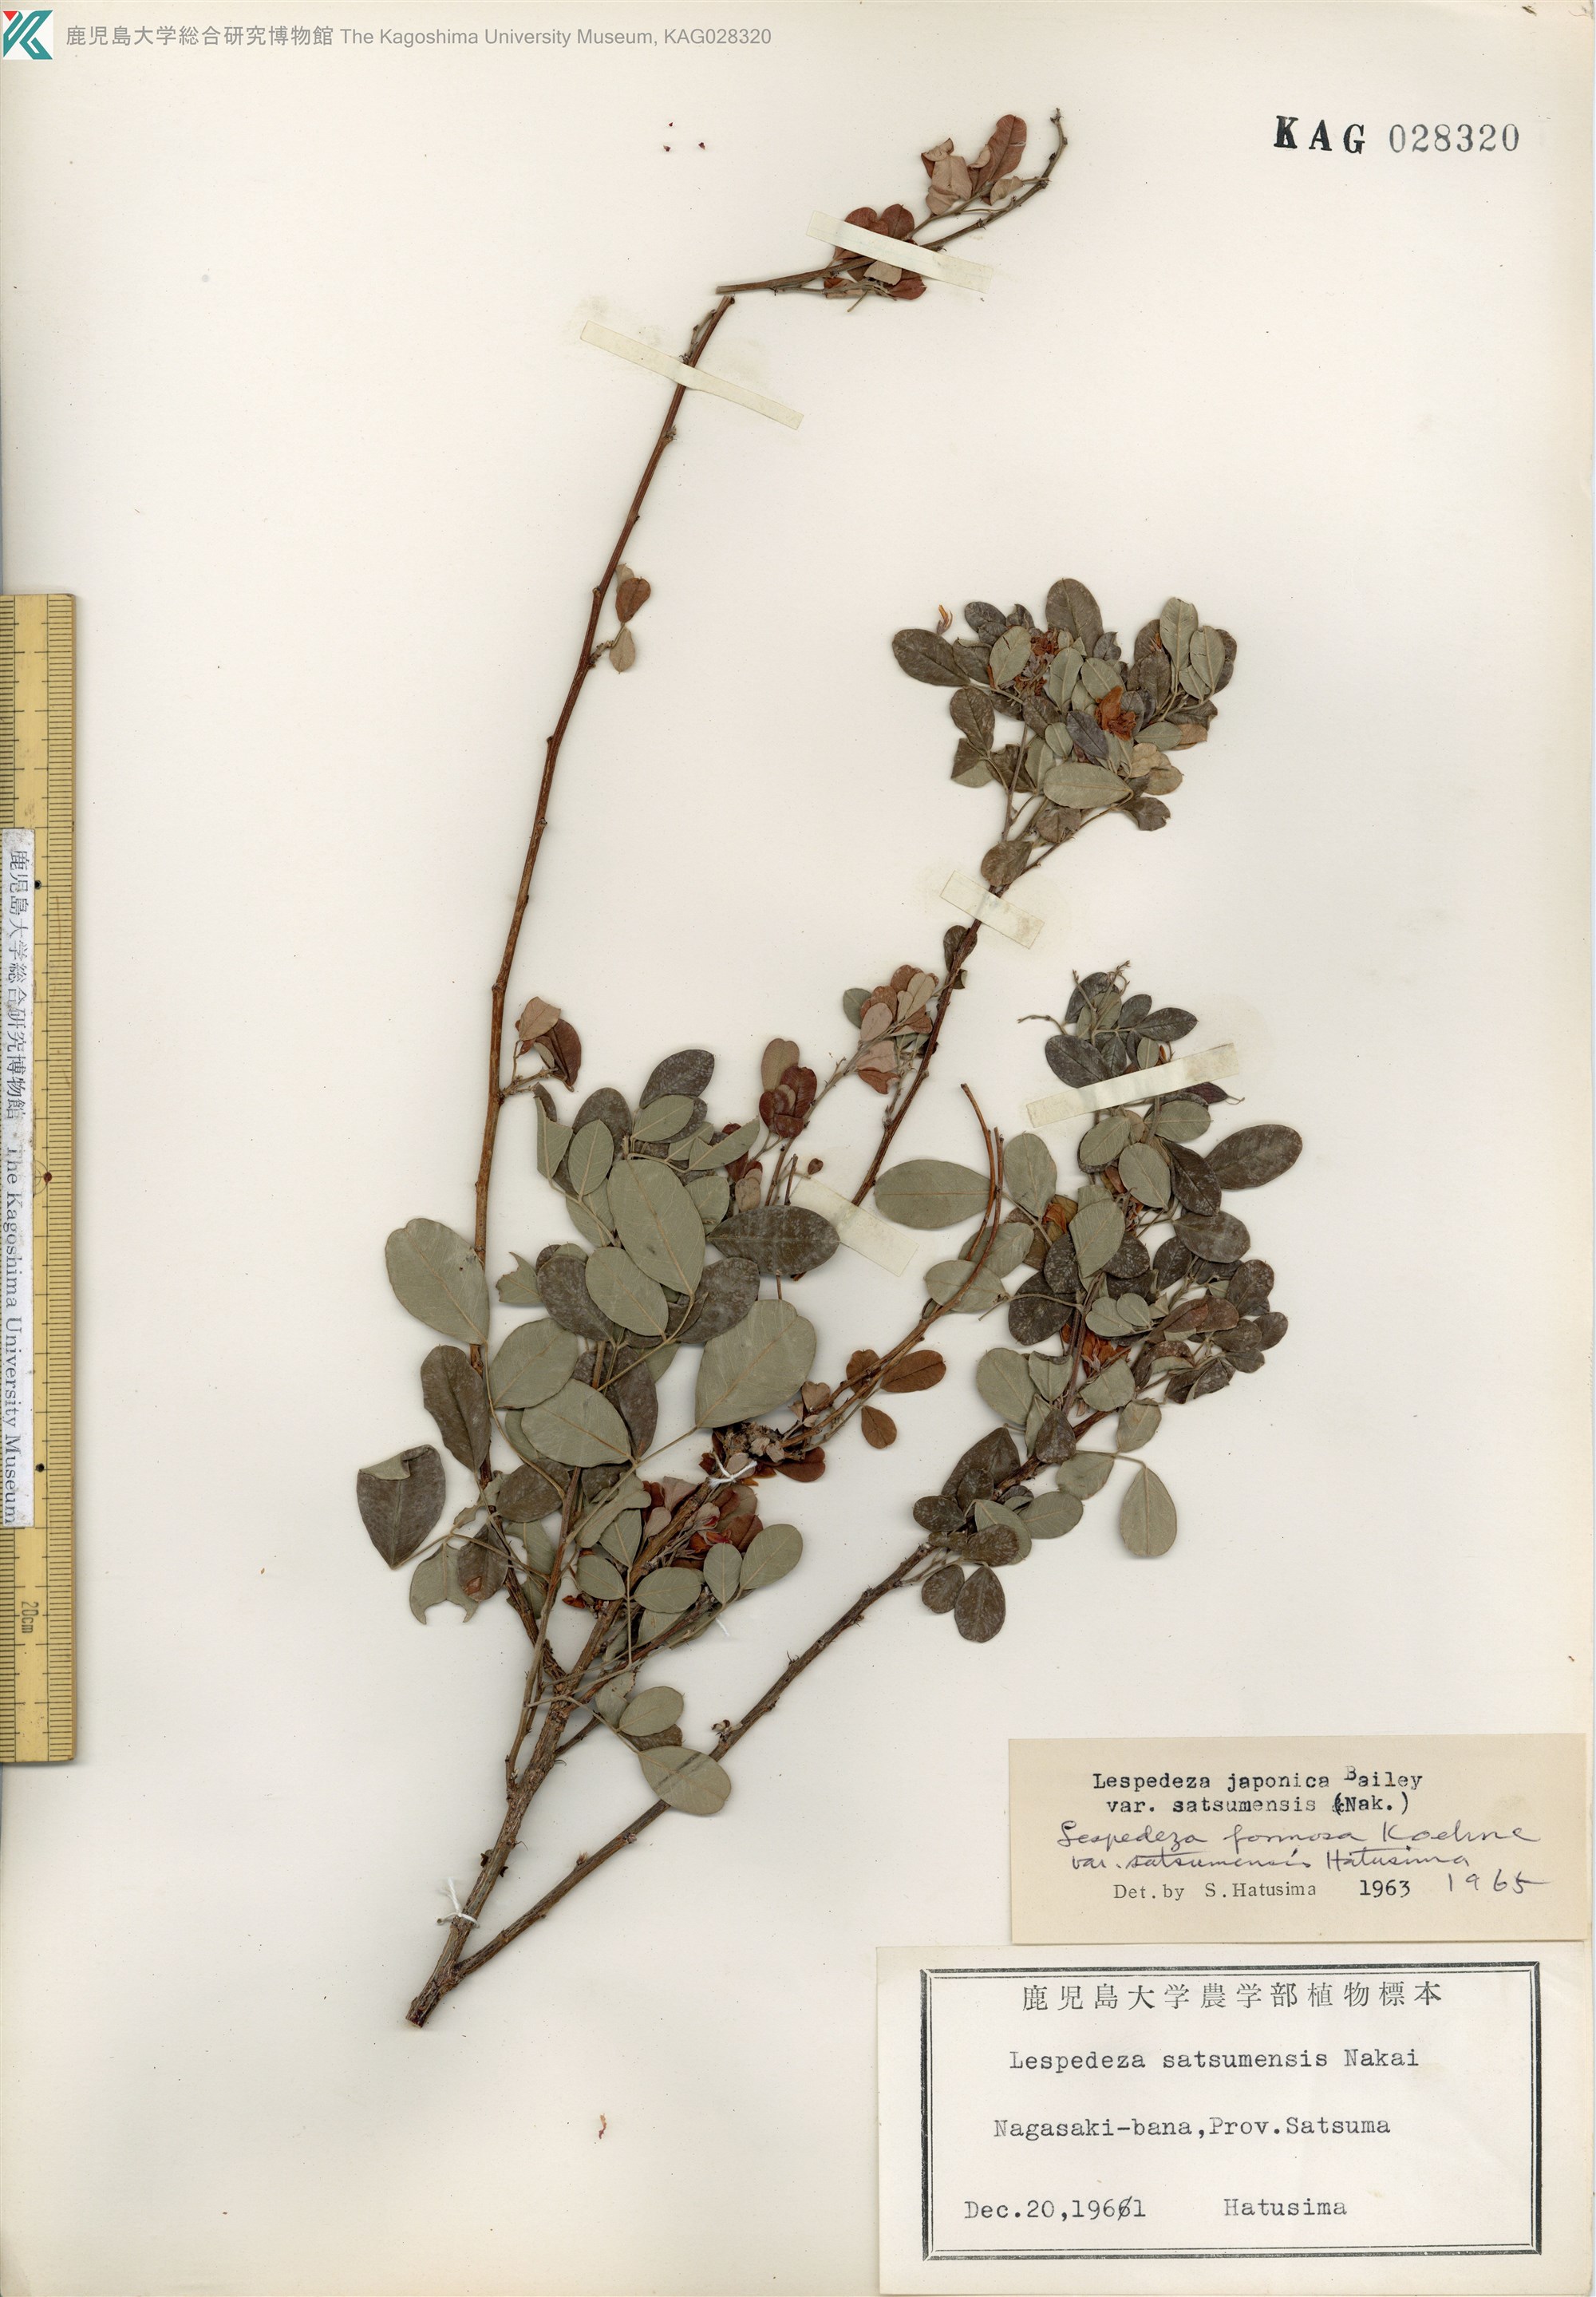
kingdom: Plantae
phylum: Tracheophyta
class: Magnoliopsida
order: Fabales
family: Fabaceae
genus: Lespedeza
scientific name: Lespedeza thunbergii
